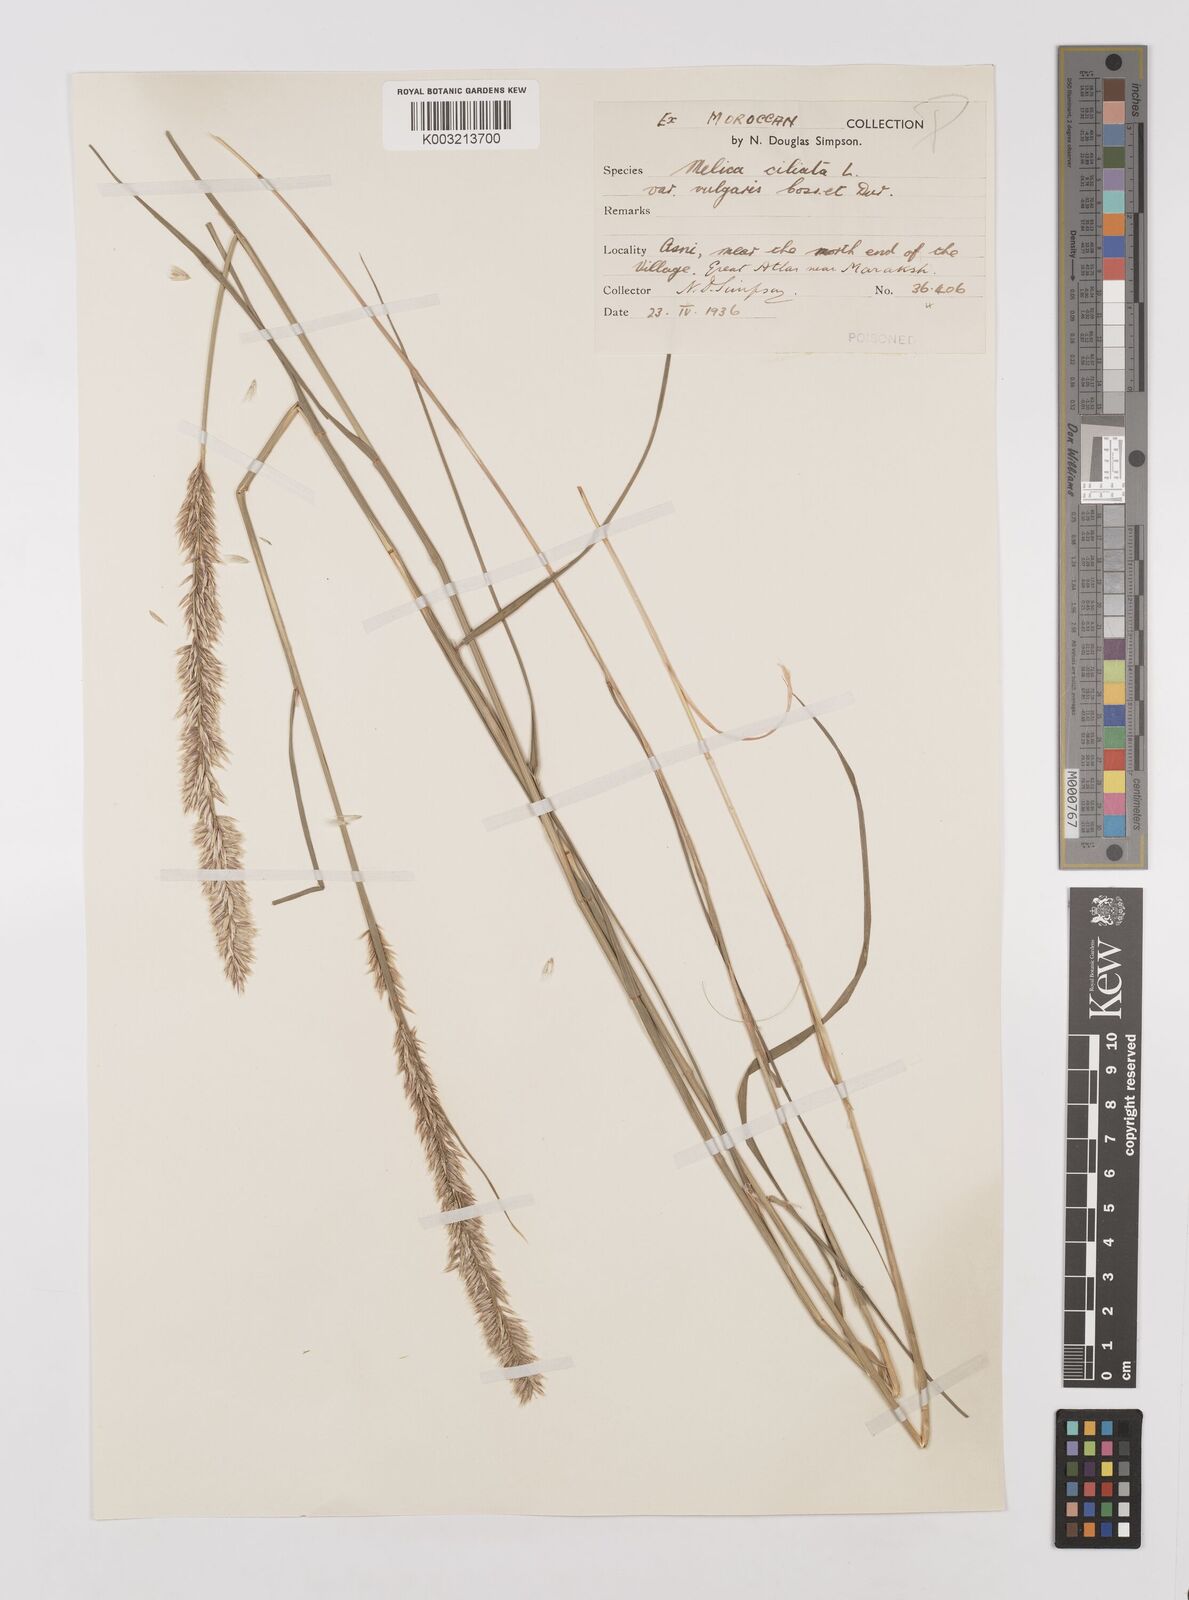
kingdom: Plantae
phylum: Tracheophyta
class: Liliopsida
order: Poales
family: Poaceae
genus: Melica
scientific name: Melica ciliata
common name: Hairy melicgrass
